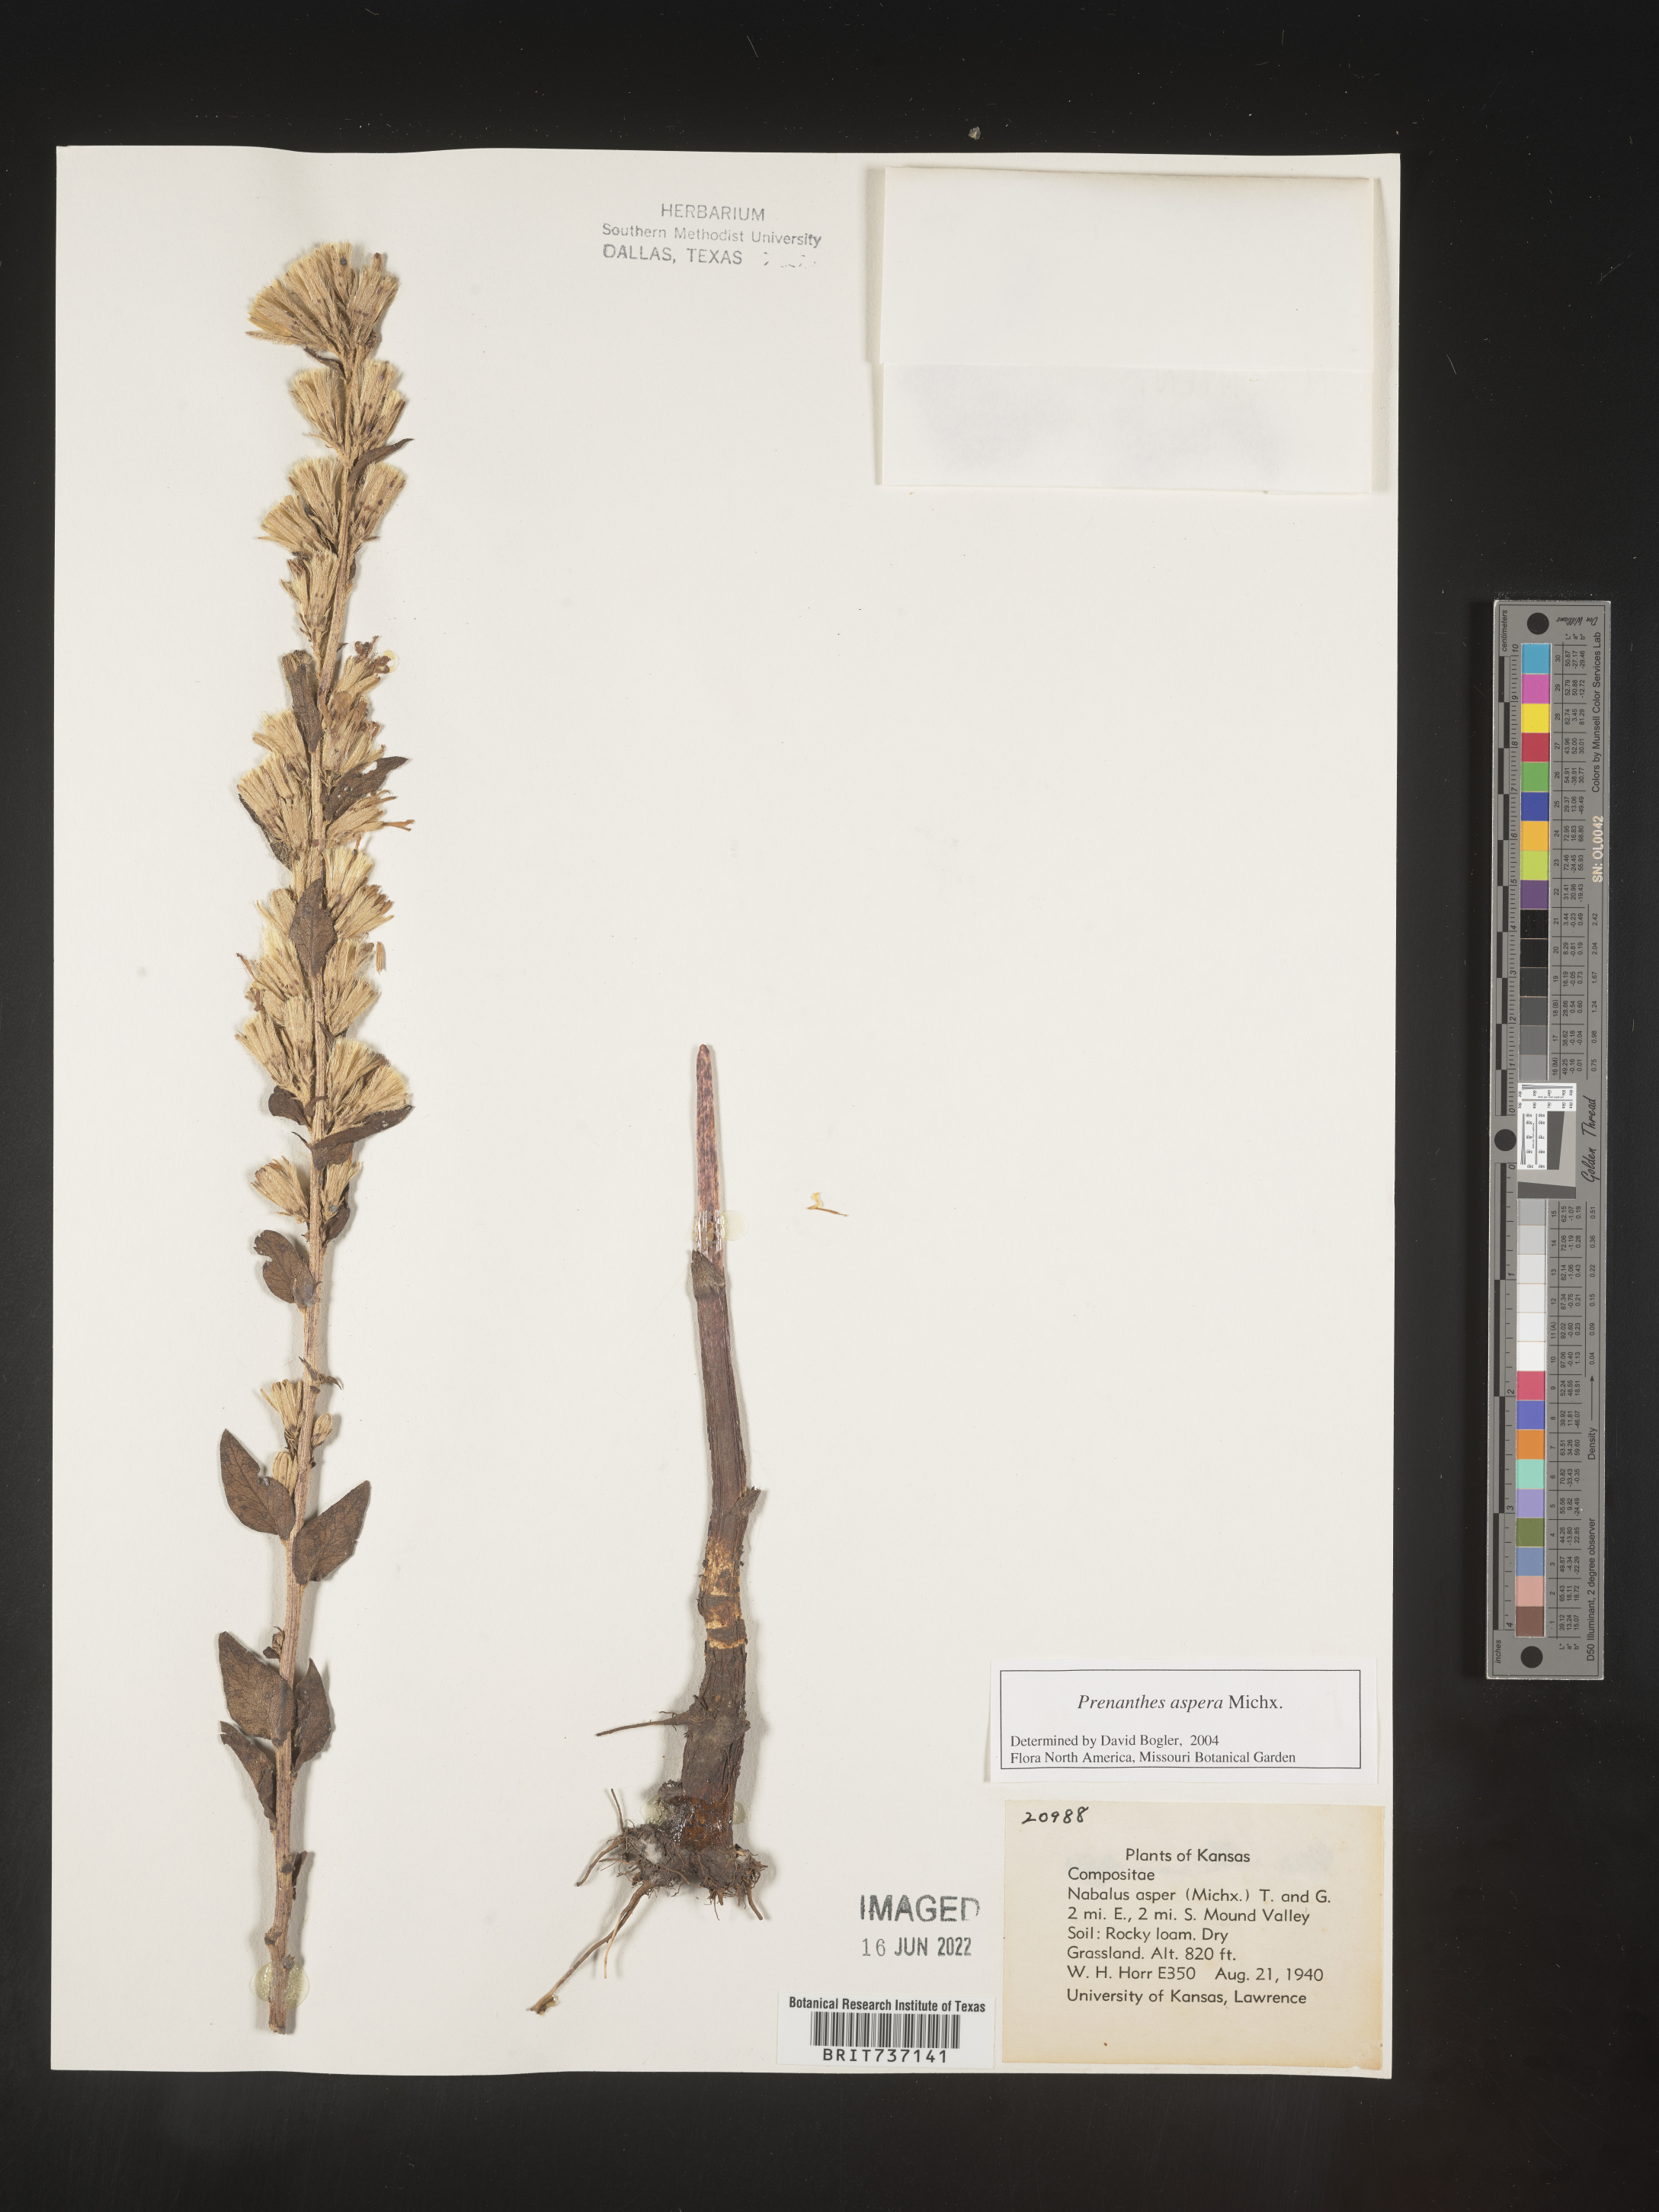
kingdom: Plantae
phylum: Tracheophyta
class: Magnoliopsida
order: Asterales
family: Asteraceae
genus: Nabalus
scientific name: Nabalus asper
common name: Rough rattlesnakeroot
